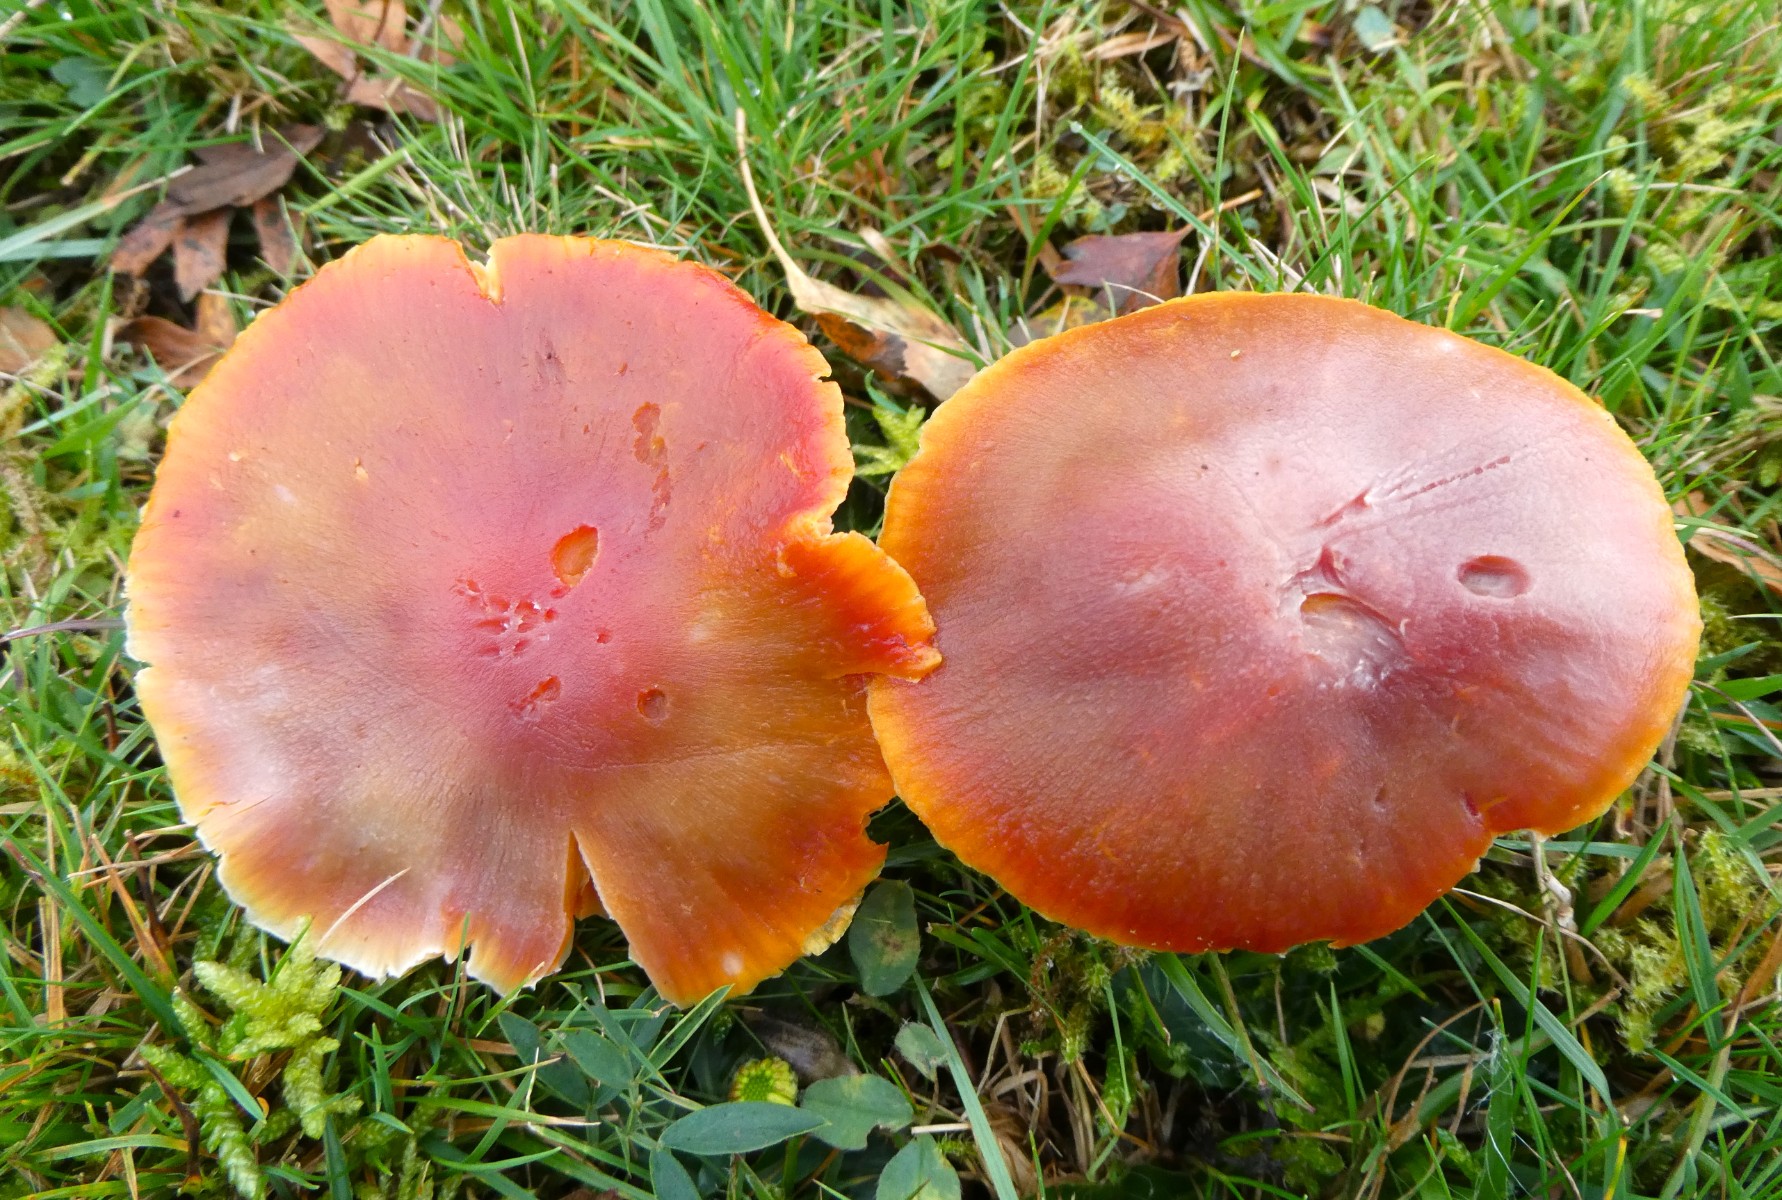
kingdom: Fungi
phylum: Basidiomycota
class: Agaricomycetes
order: Agaricales
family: Hygrophoraceae
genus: Hygrocybe
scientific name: Hygrocybe punicea
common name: skarlagen-vokshat
